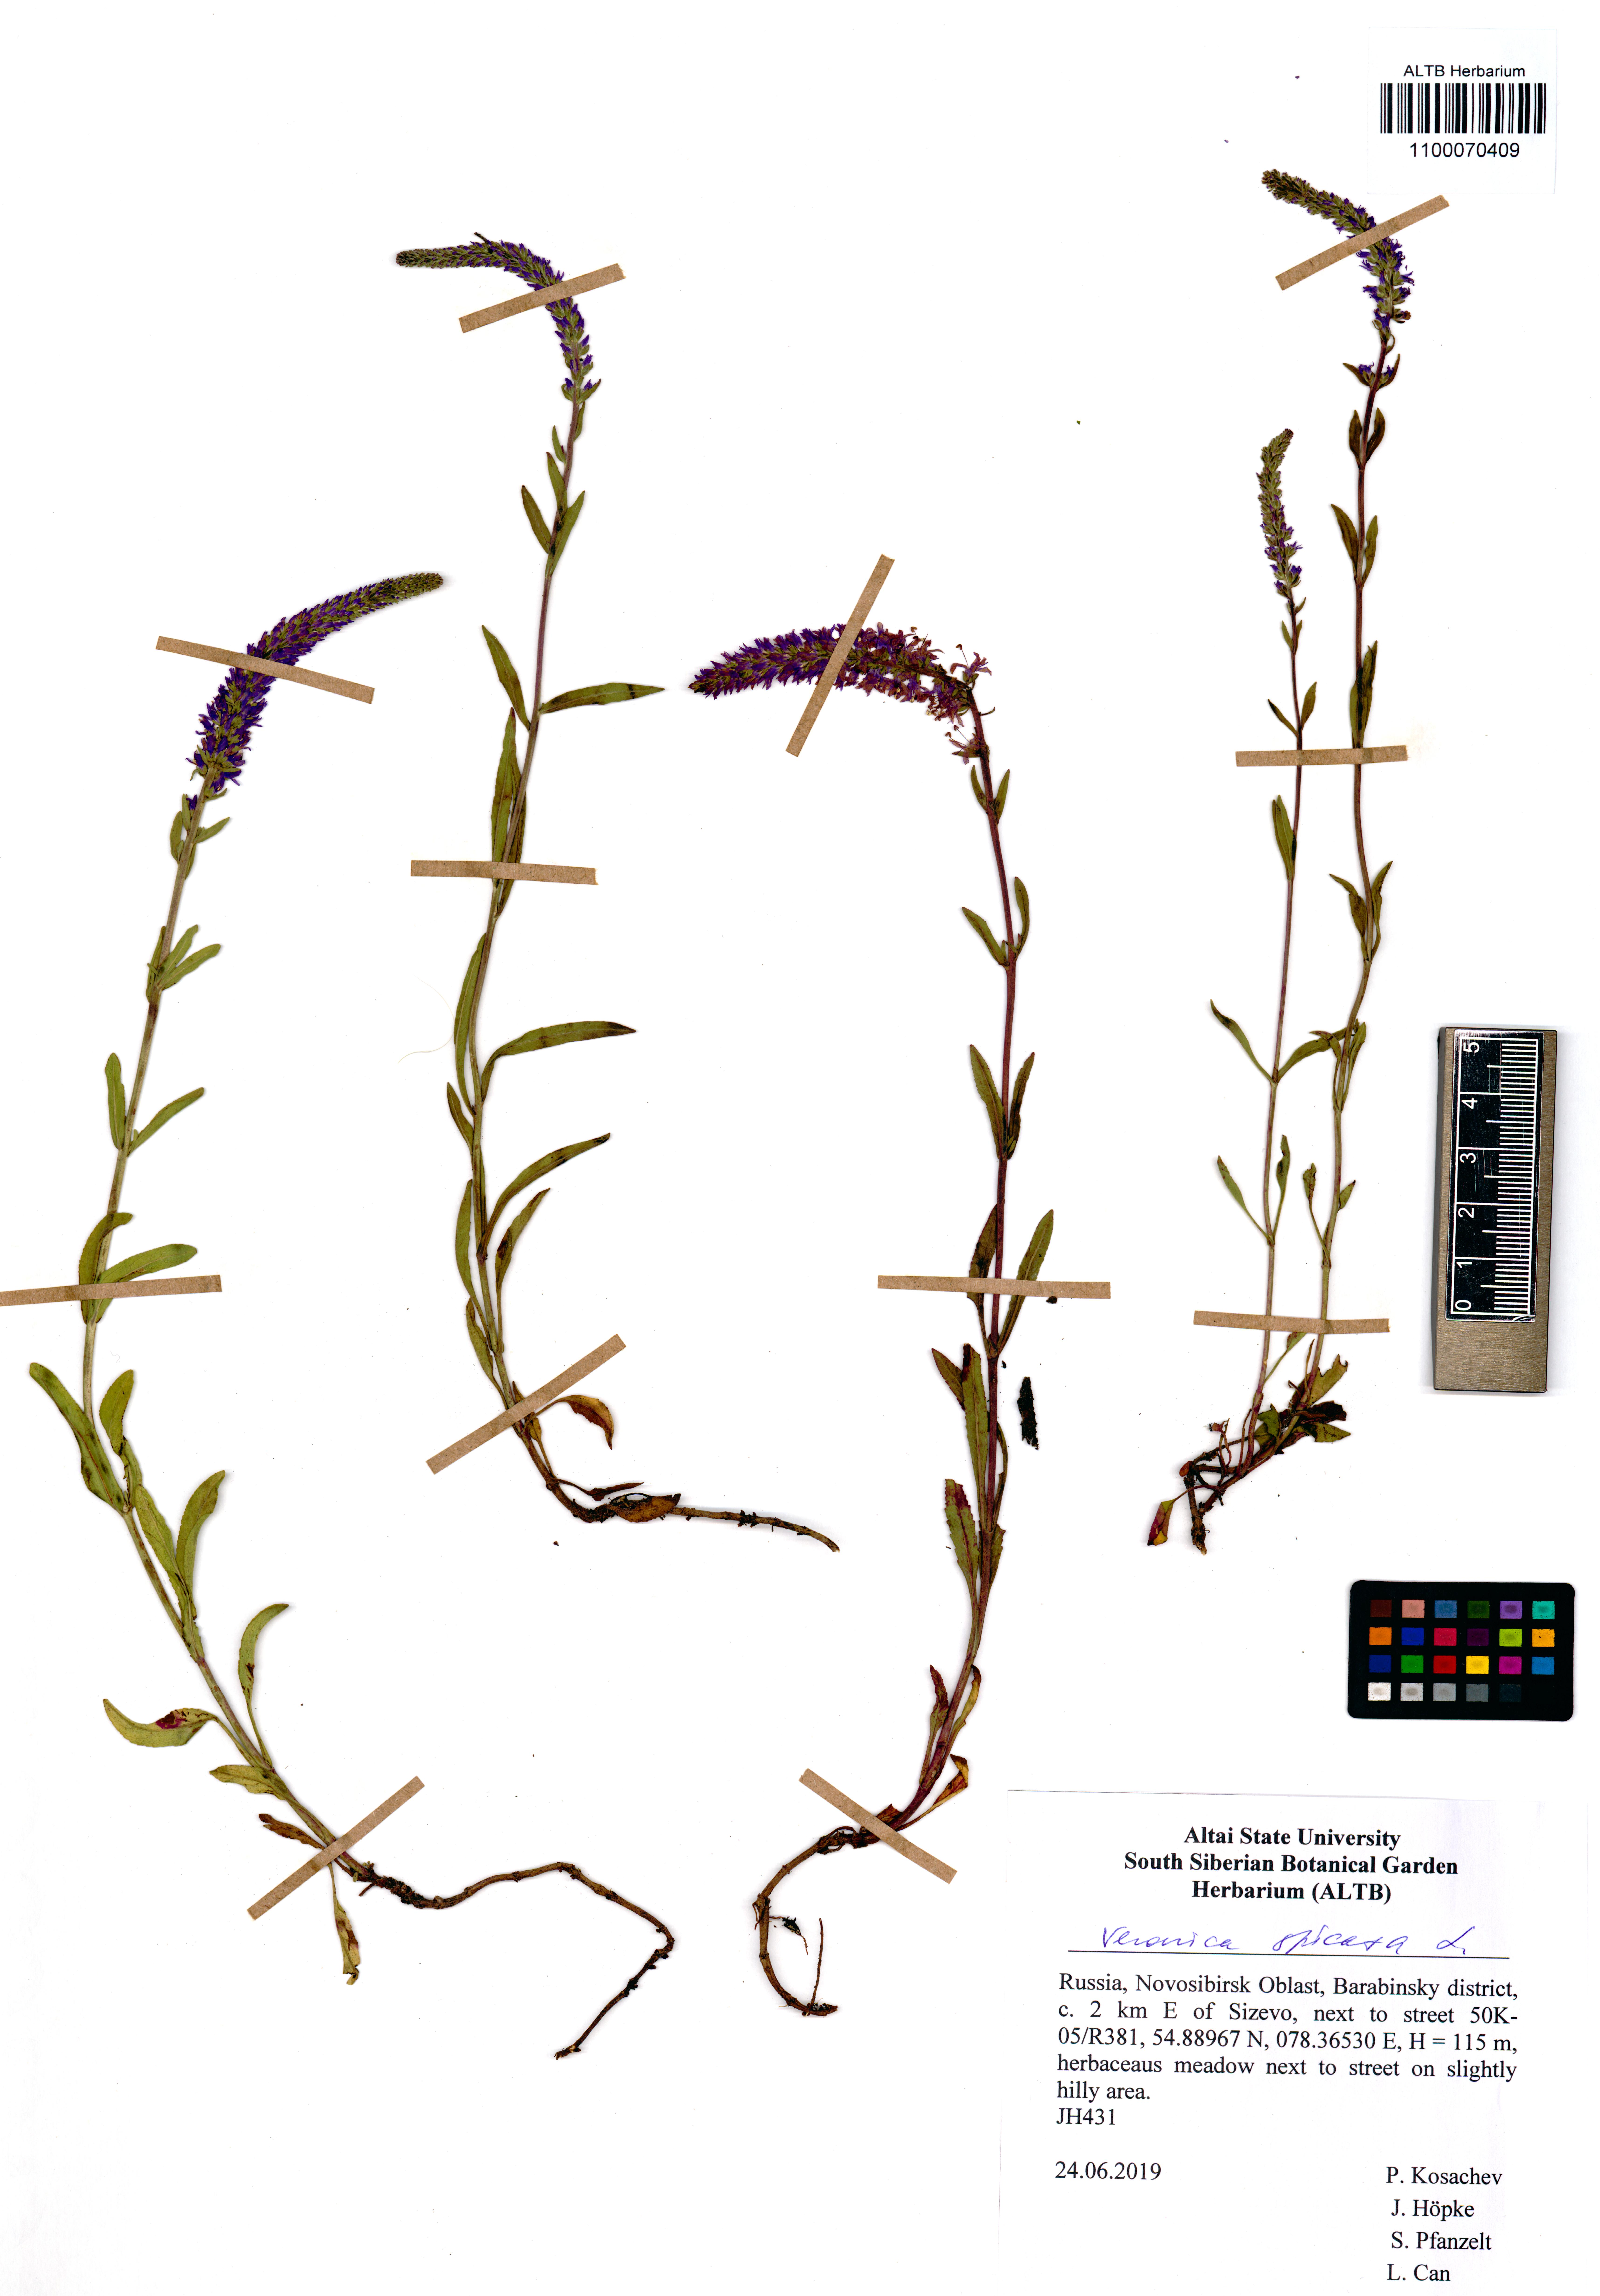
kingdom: Plantae
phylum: Tracheophyta
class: Magnoliopsida
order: Lamiales
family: Plantaginaceae
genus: Veronica
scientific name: Veronica spicata
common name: Spiked speedwell
